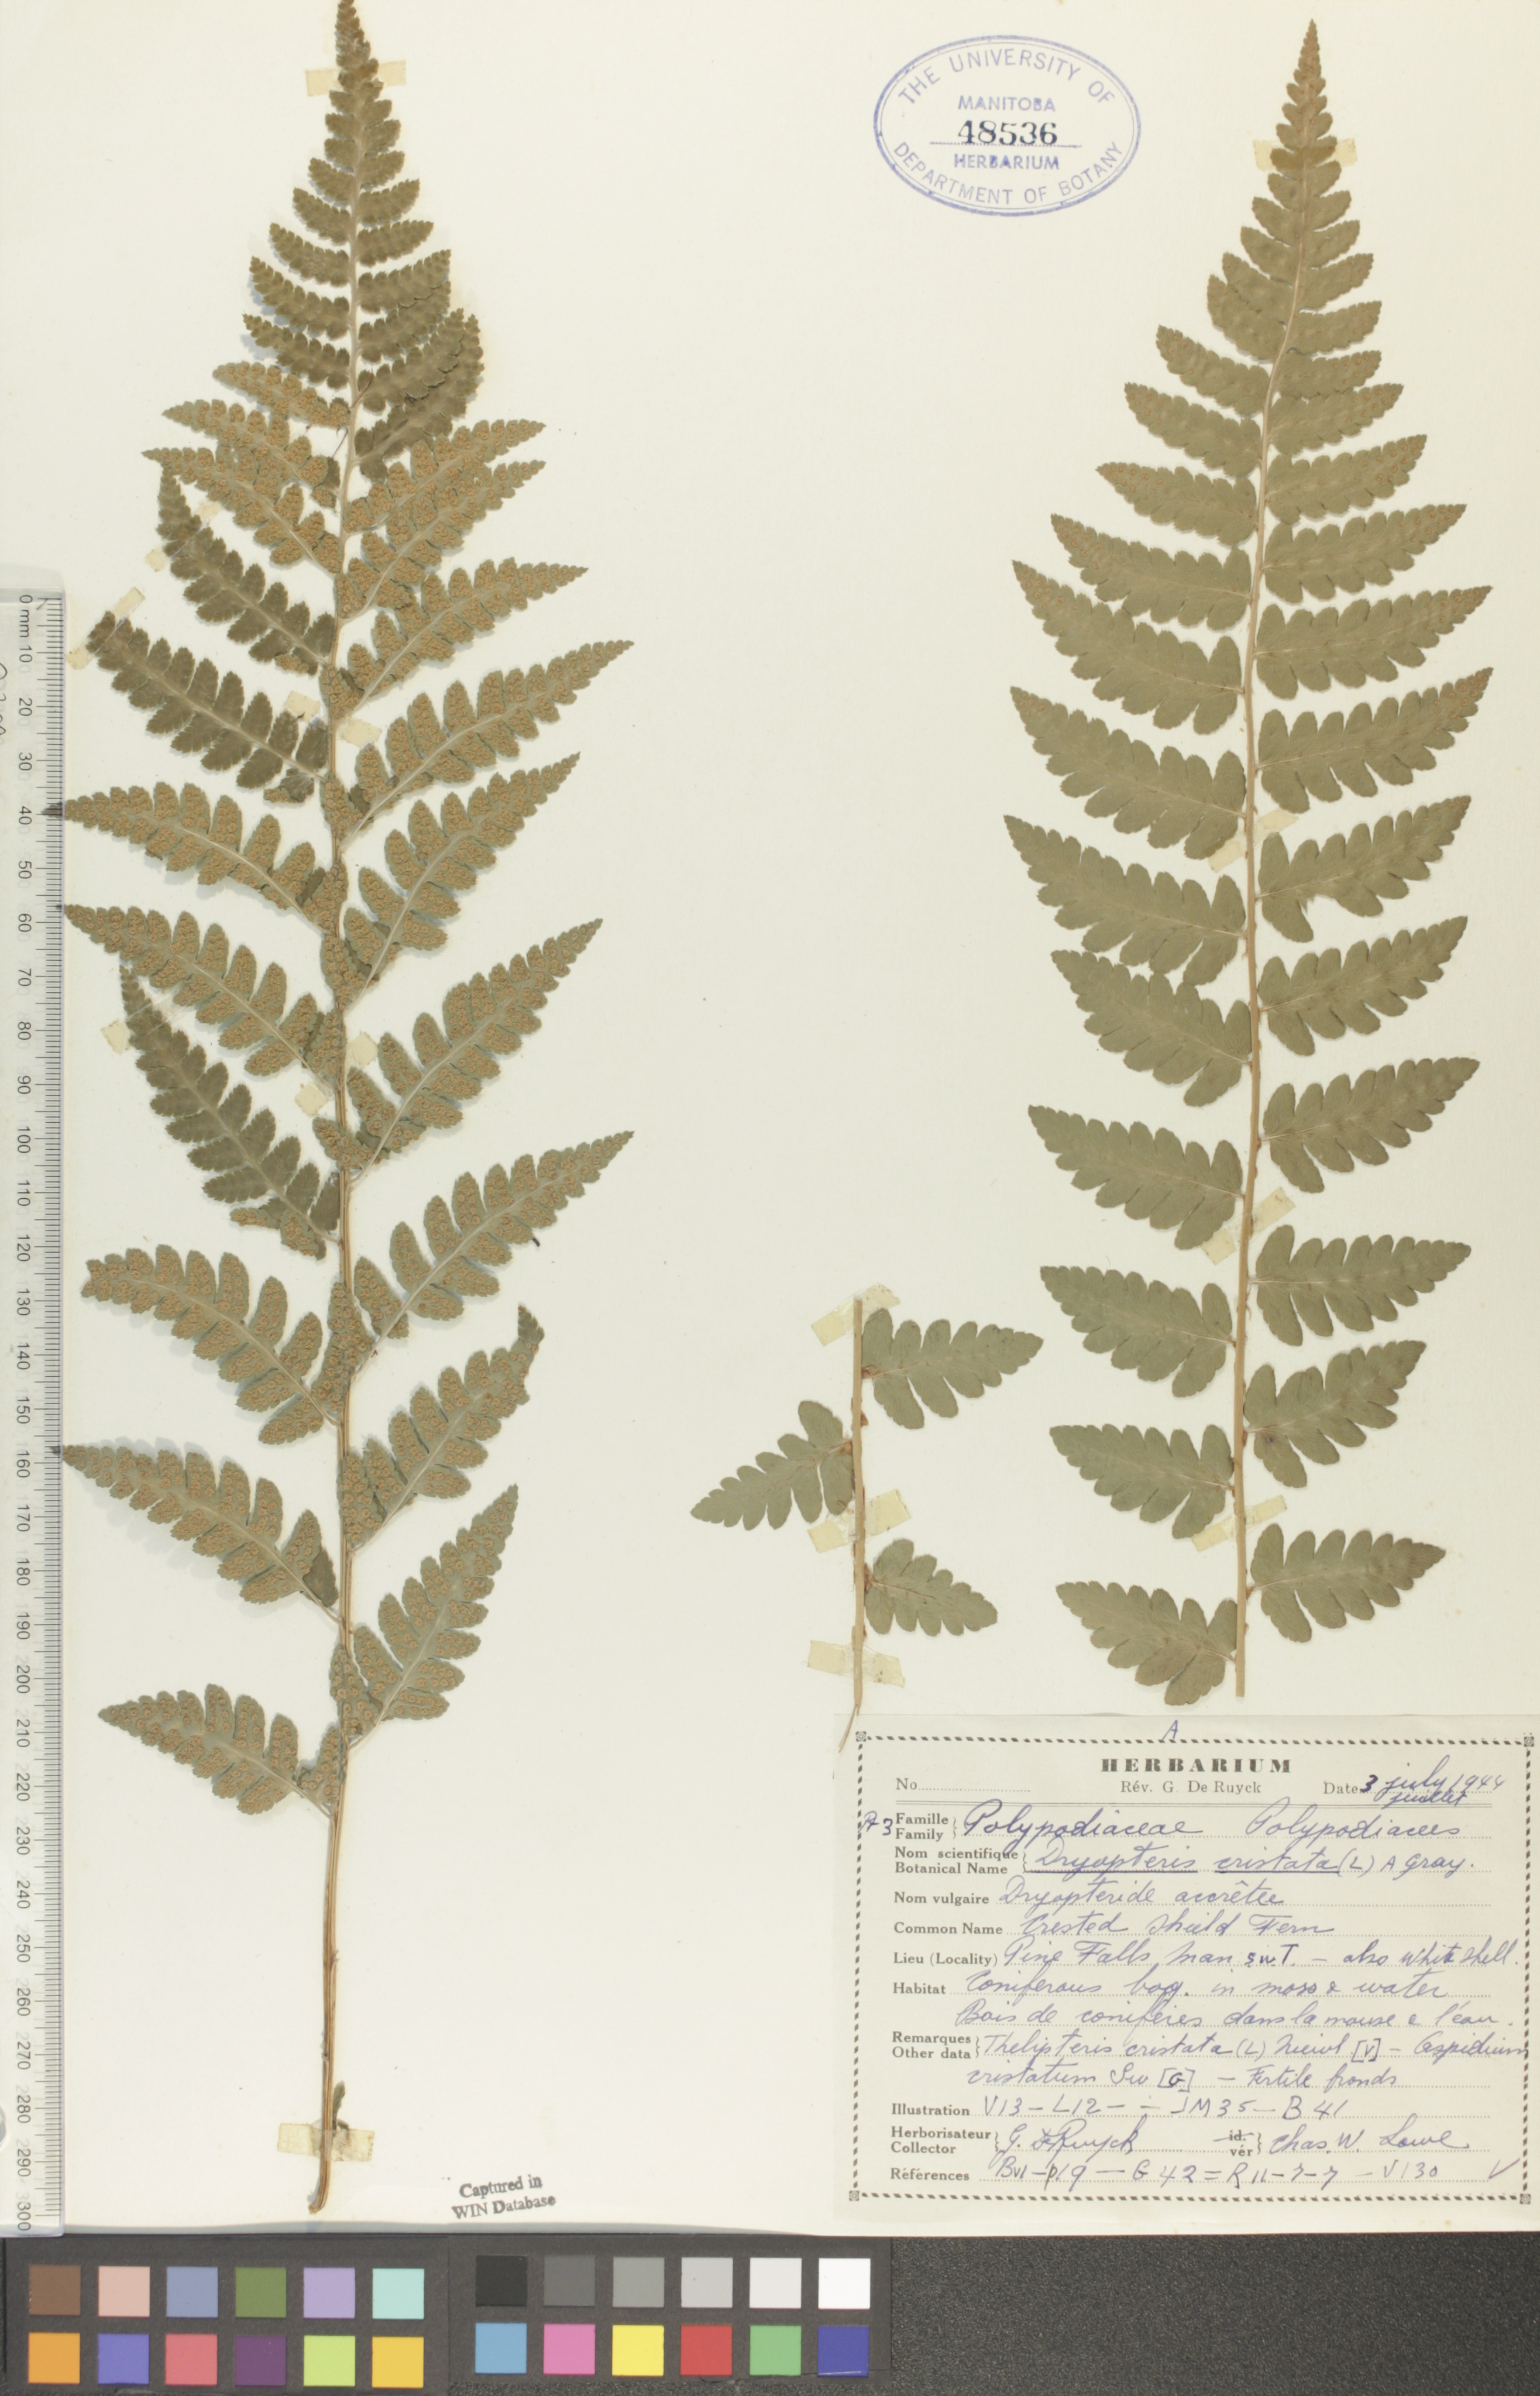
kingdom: Plantae
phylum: Tracheophyta
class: Polypodiopsida
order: Polypodiales
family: Dryopteridaceae
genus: Dryopteris
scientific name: Dryopteris cristata
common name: Crested wood fern
